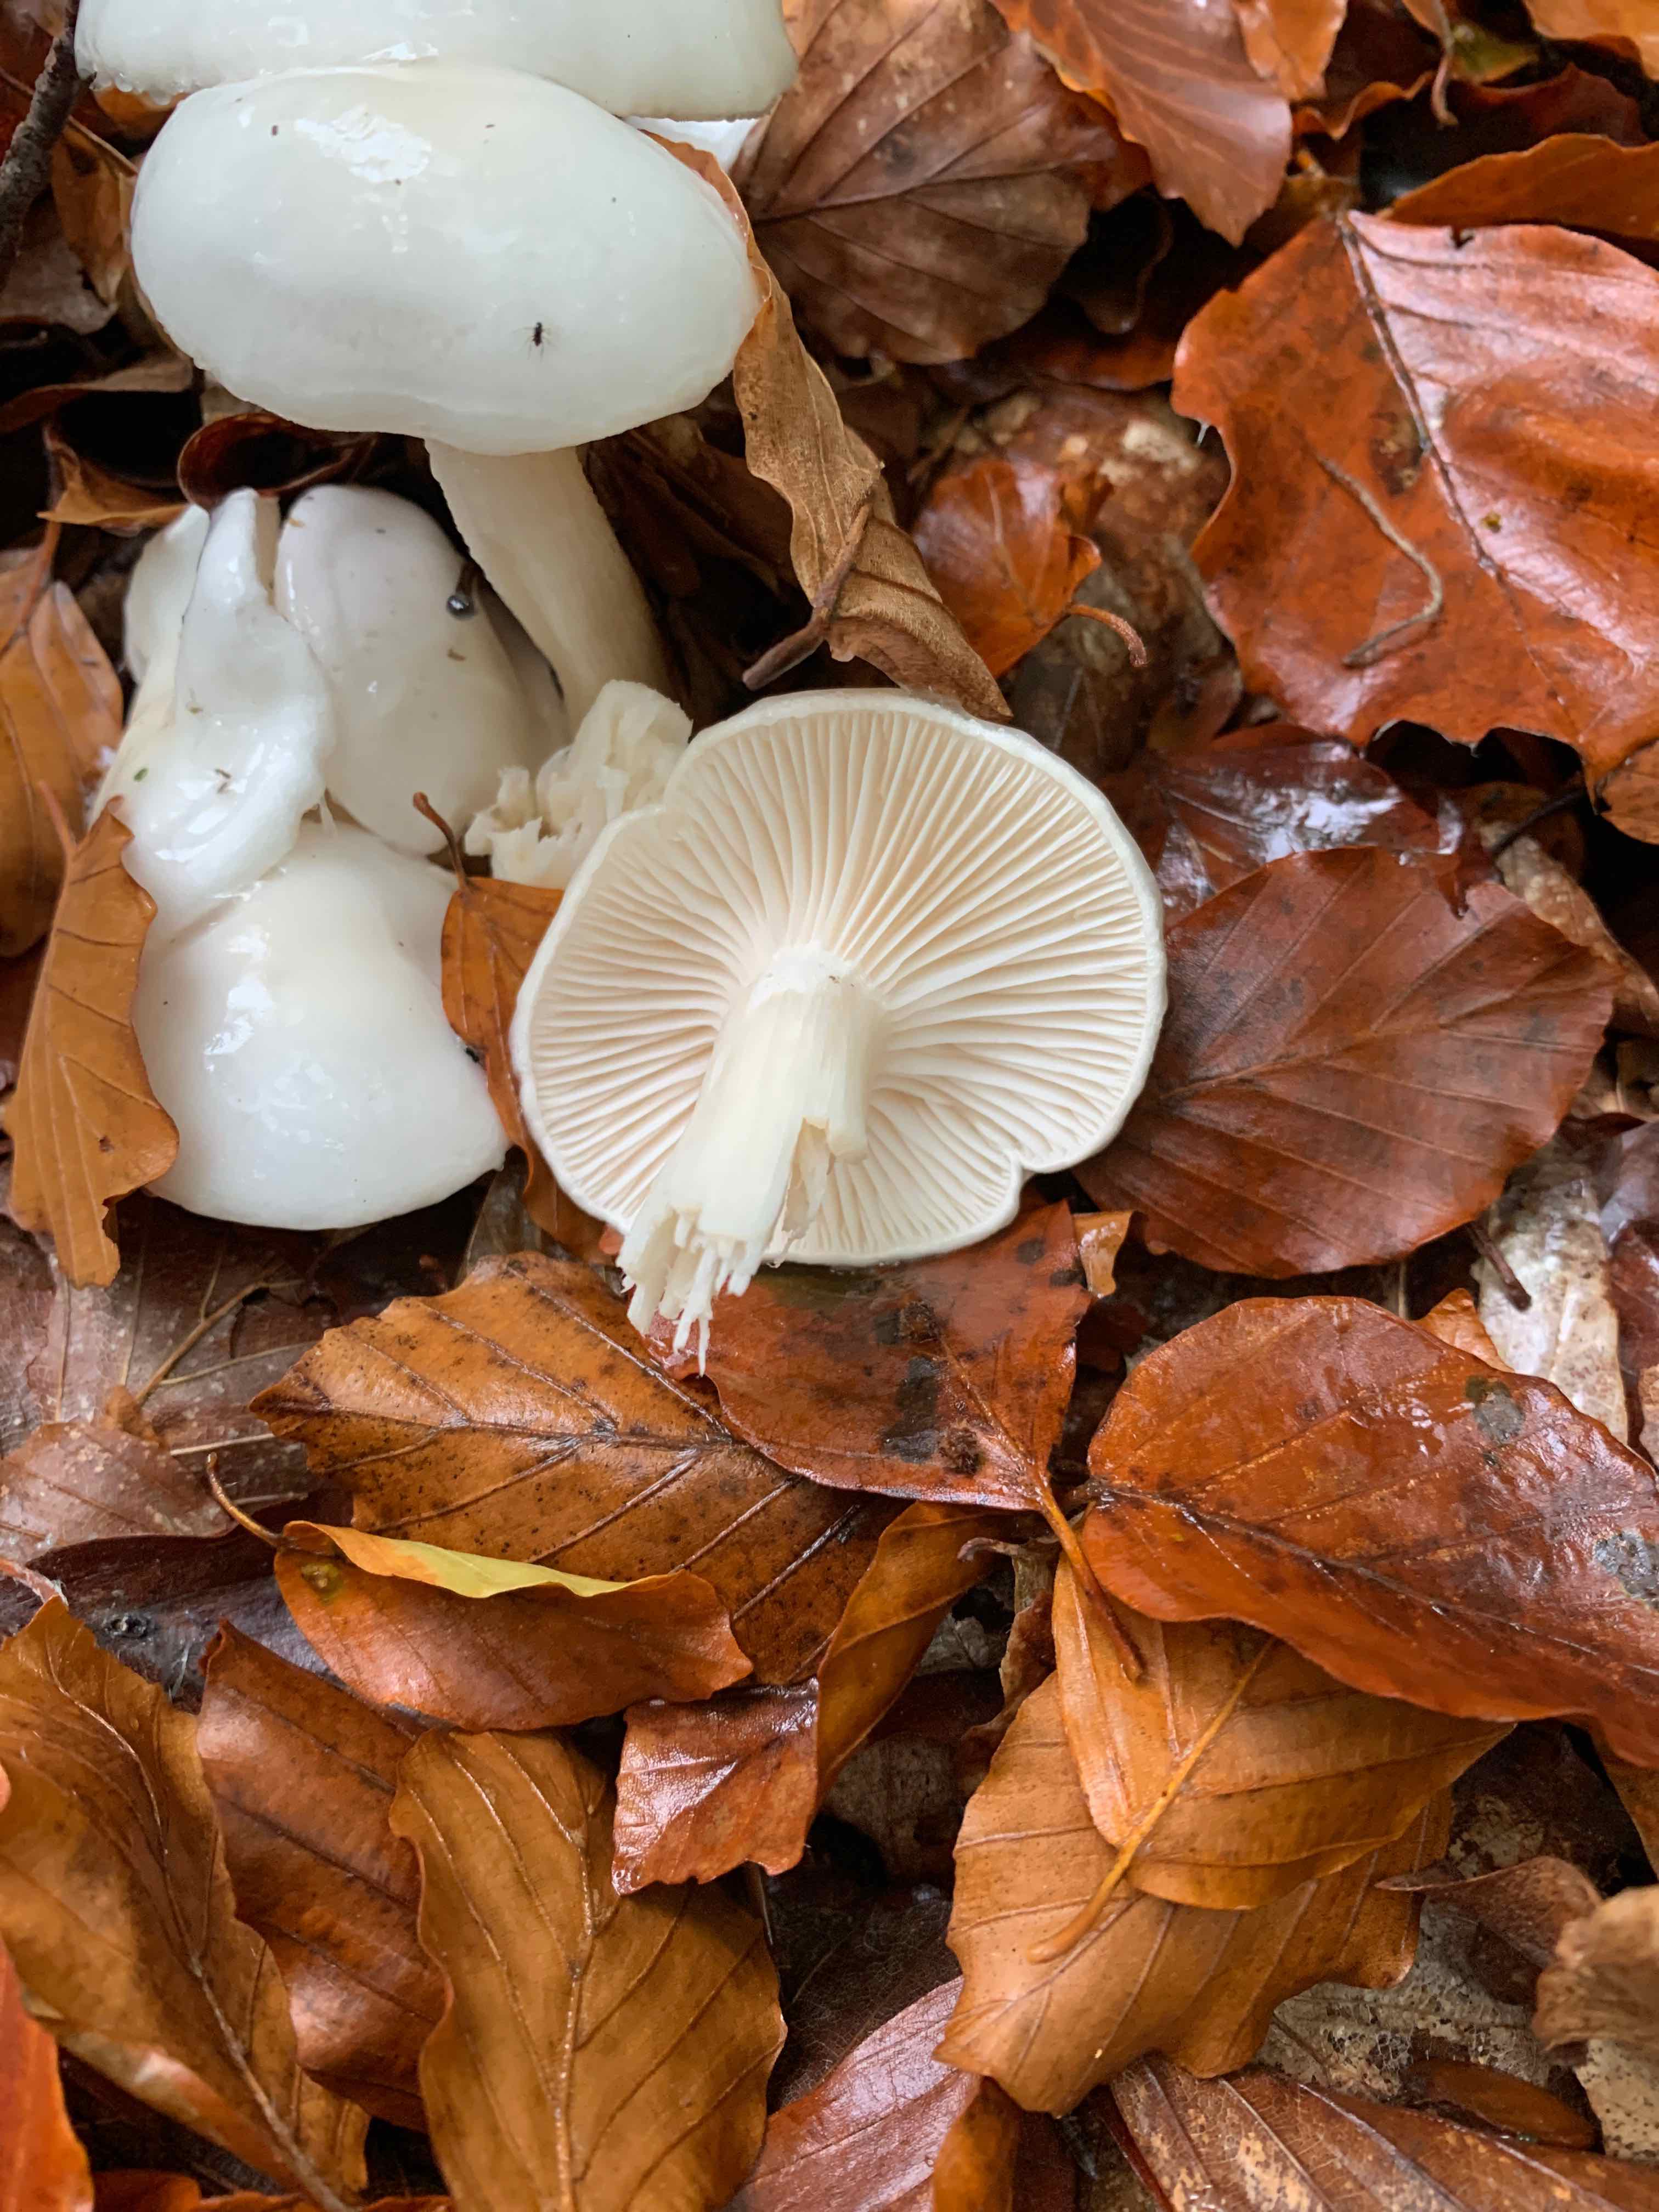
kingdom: Fungi
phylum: Basidiomycota
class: Agaricomycetes
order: Agaricales
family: Hygrophoraceae
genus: Hygrophorus
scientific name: Hygrophorus eburneus
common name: elfenbens-sneglehat
